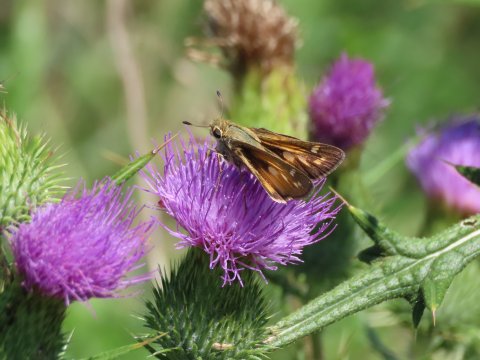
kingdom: Animalia
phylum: Arthropoda
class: Insecta
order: Lepidoptera
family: Hesperiidae
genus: Atalopedes
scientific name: Atalopedes campestris
